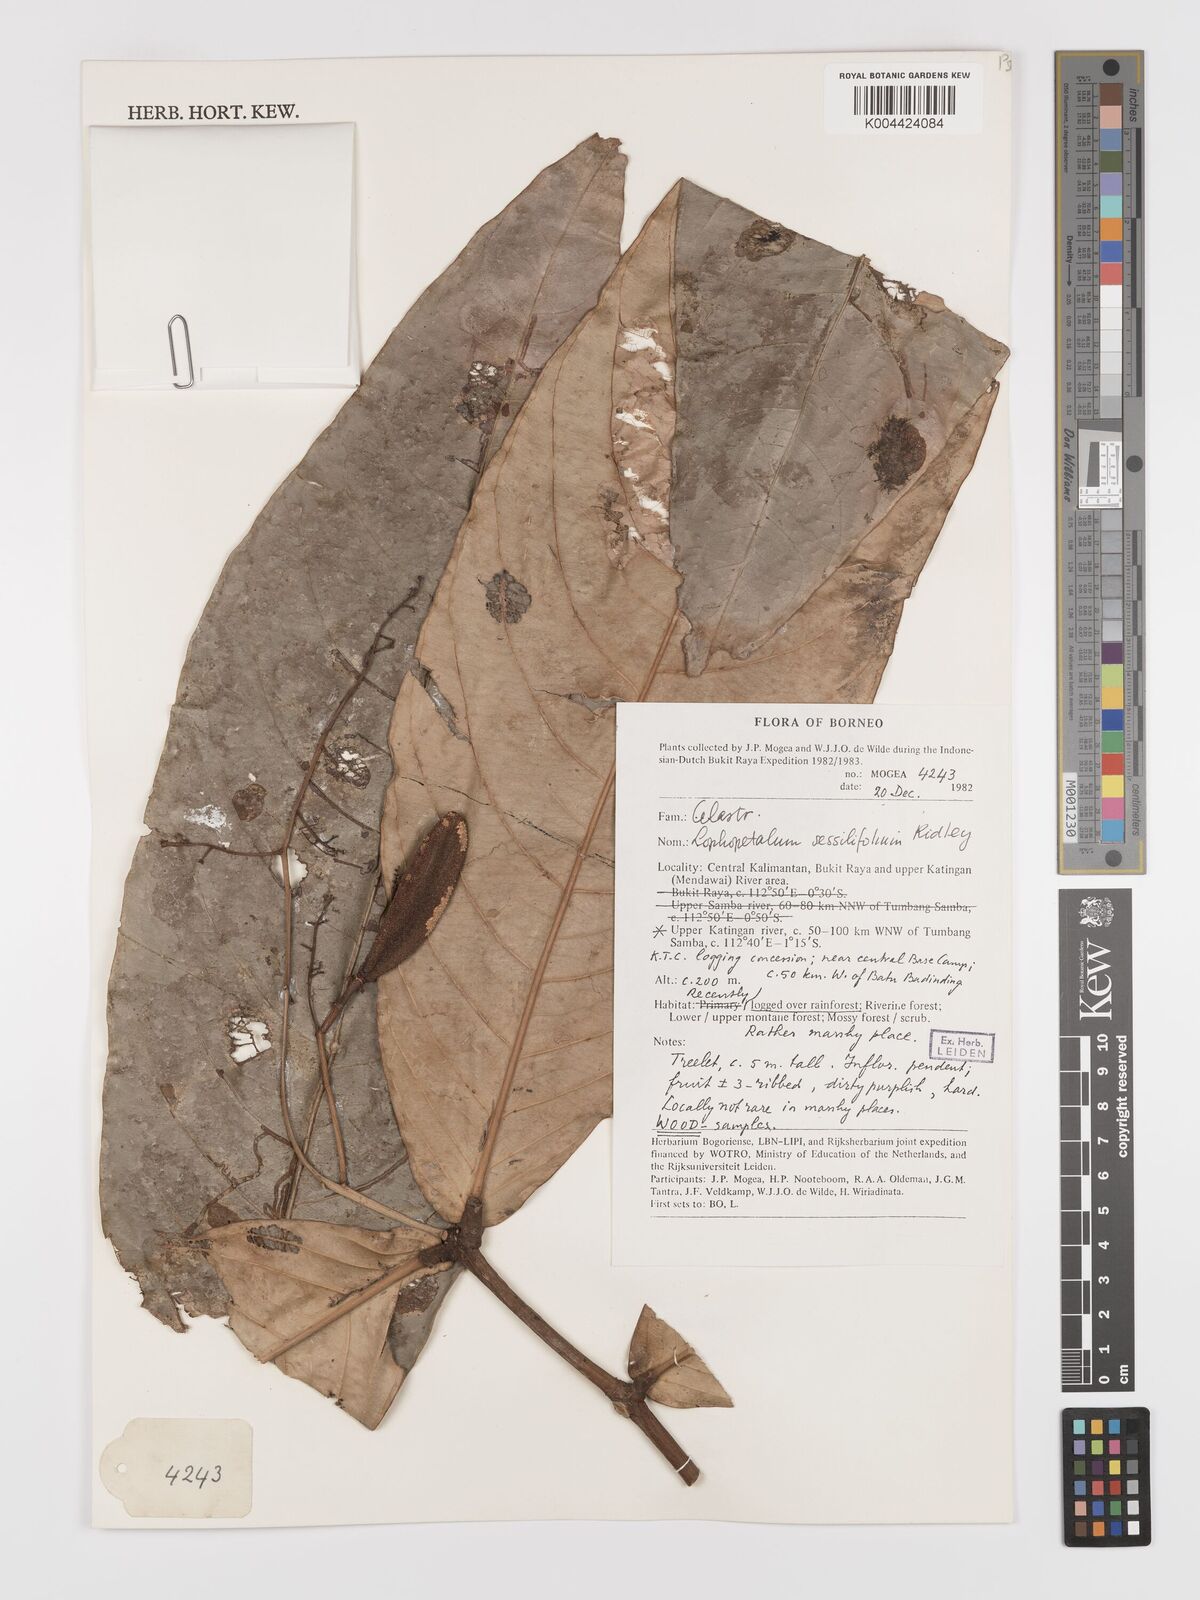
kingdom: Plantae
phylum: Tracheophyta
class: Magnoliopsida
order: Celastrales
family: Celastraceae
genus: Lophopetalum
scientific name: Lophopetalum sessilifolium
